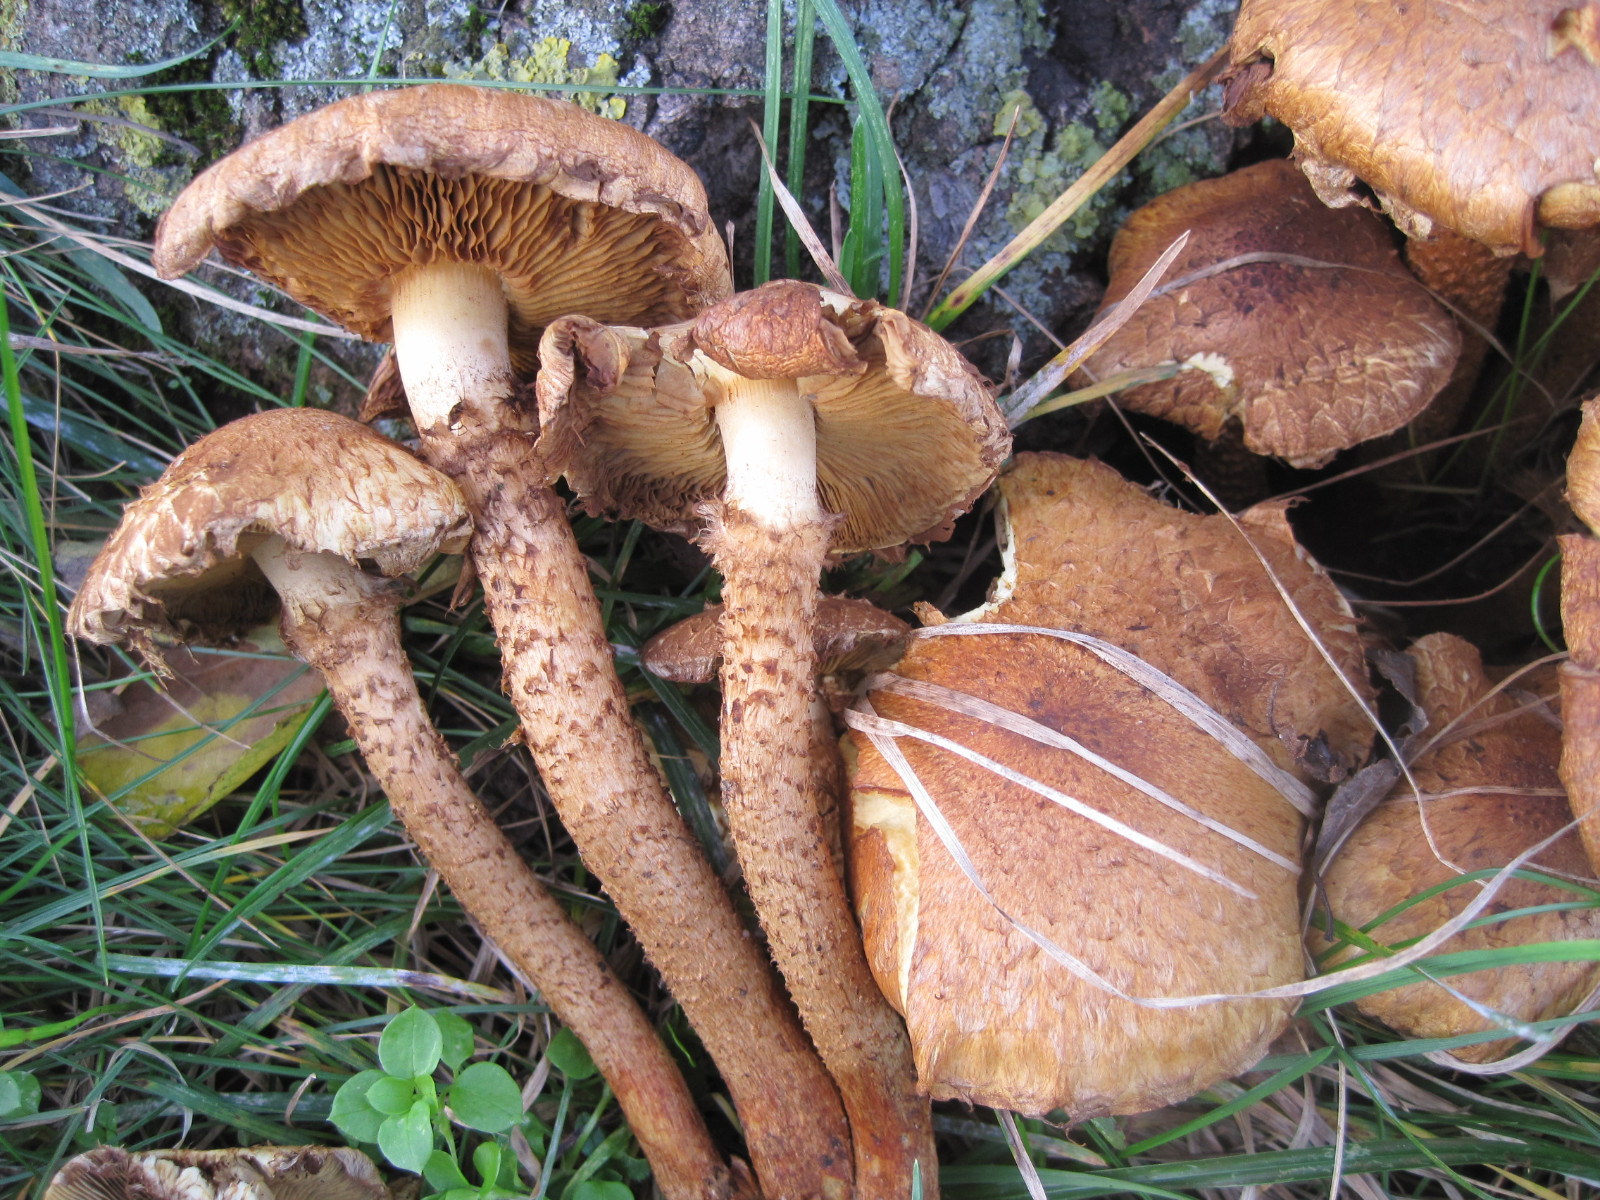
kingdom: Fungi
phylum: Basidiomycota
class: Agaricomycetes
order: Agaricales
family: Strophariaceae
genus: Pholiota
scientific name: Pholiota squarrosa
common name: krumskællet skælhat
